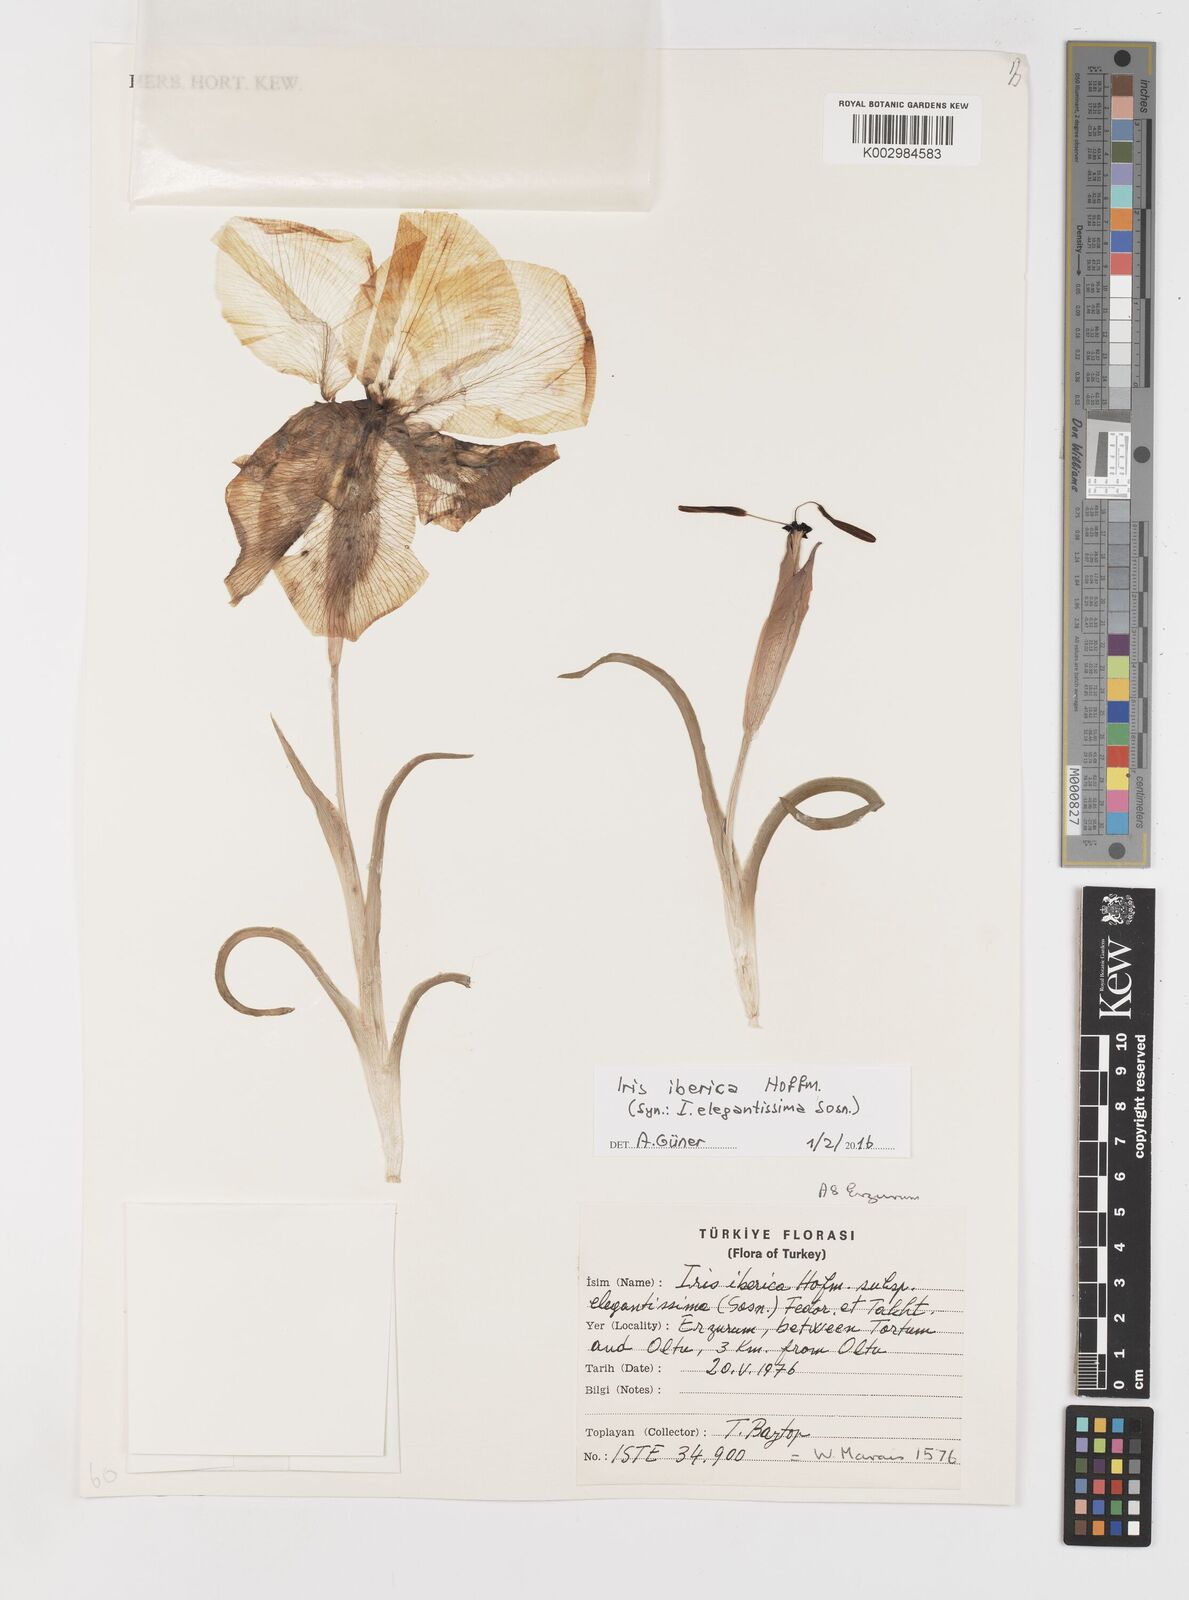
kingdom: Plantae
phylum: Tracheophyta
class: Liliopsida
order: Asparagales
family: Iridaceae
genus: Iris
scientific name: Iris iberica
